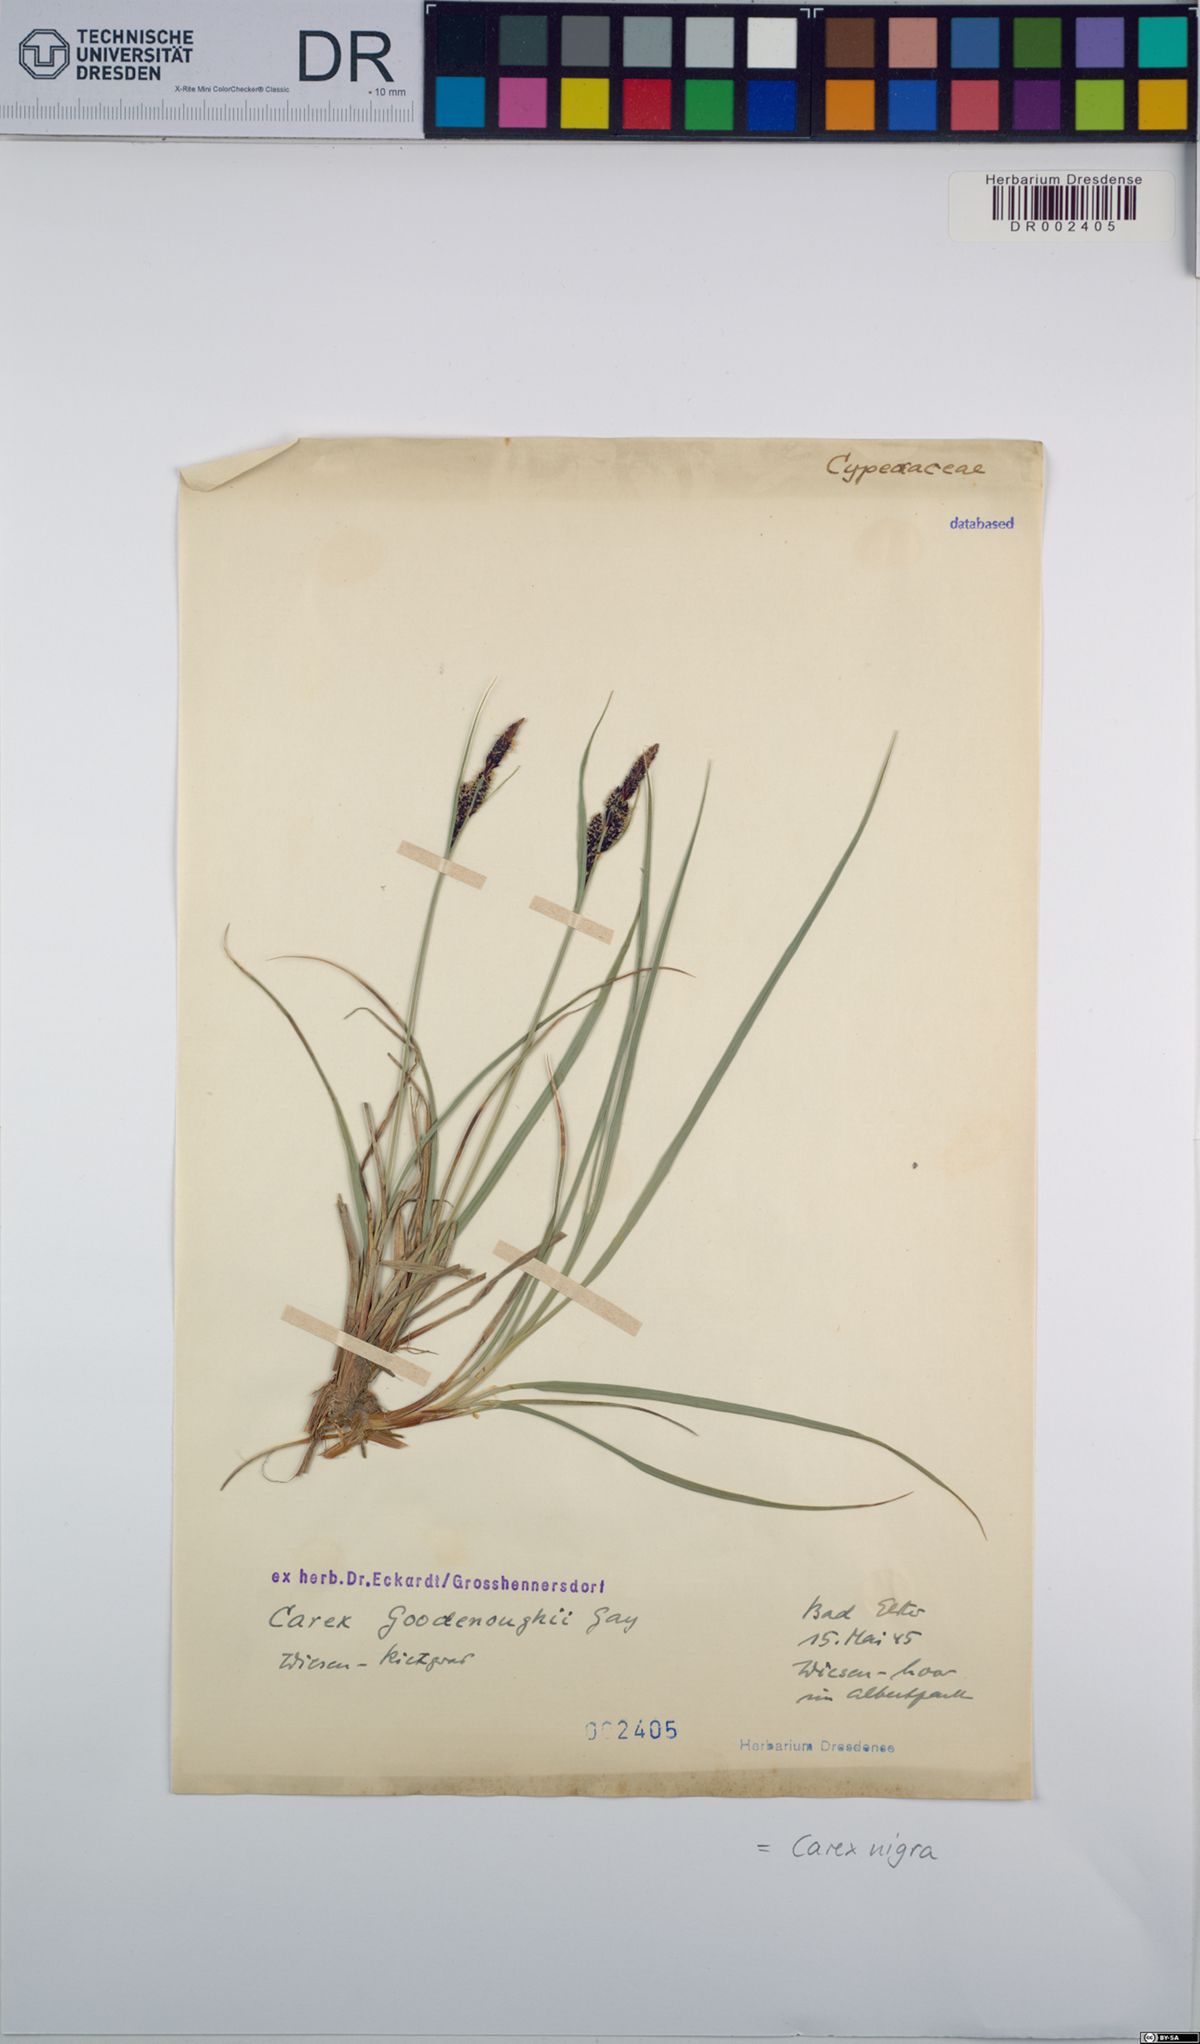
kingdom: Plantae
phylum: Tracheophyta
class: Liliopsida
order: Poales
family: Cyperaceae
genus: Carex
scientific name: Carex nigra
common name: Common sedge
